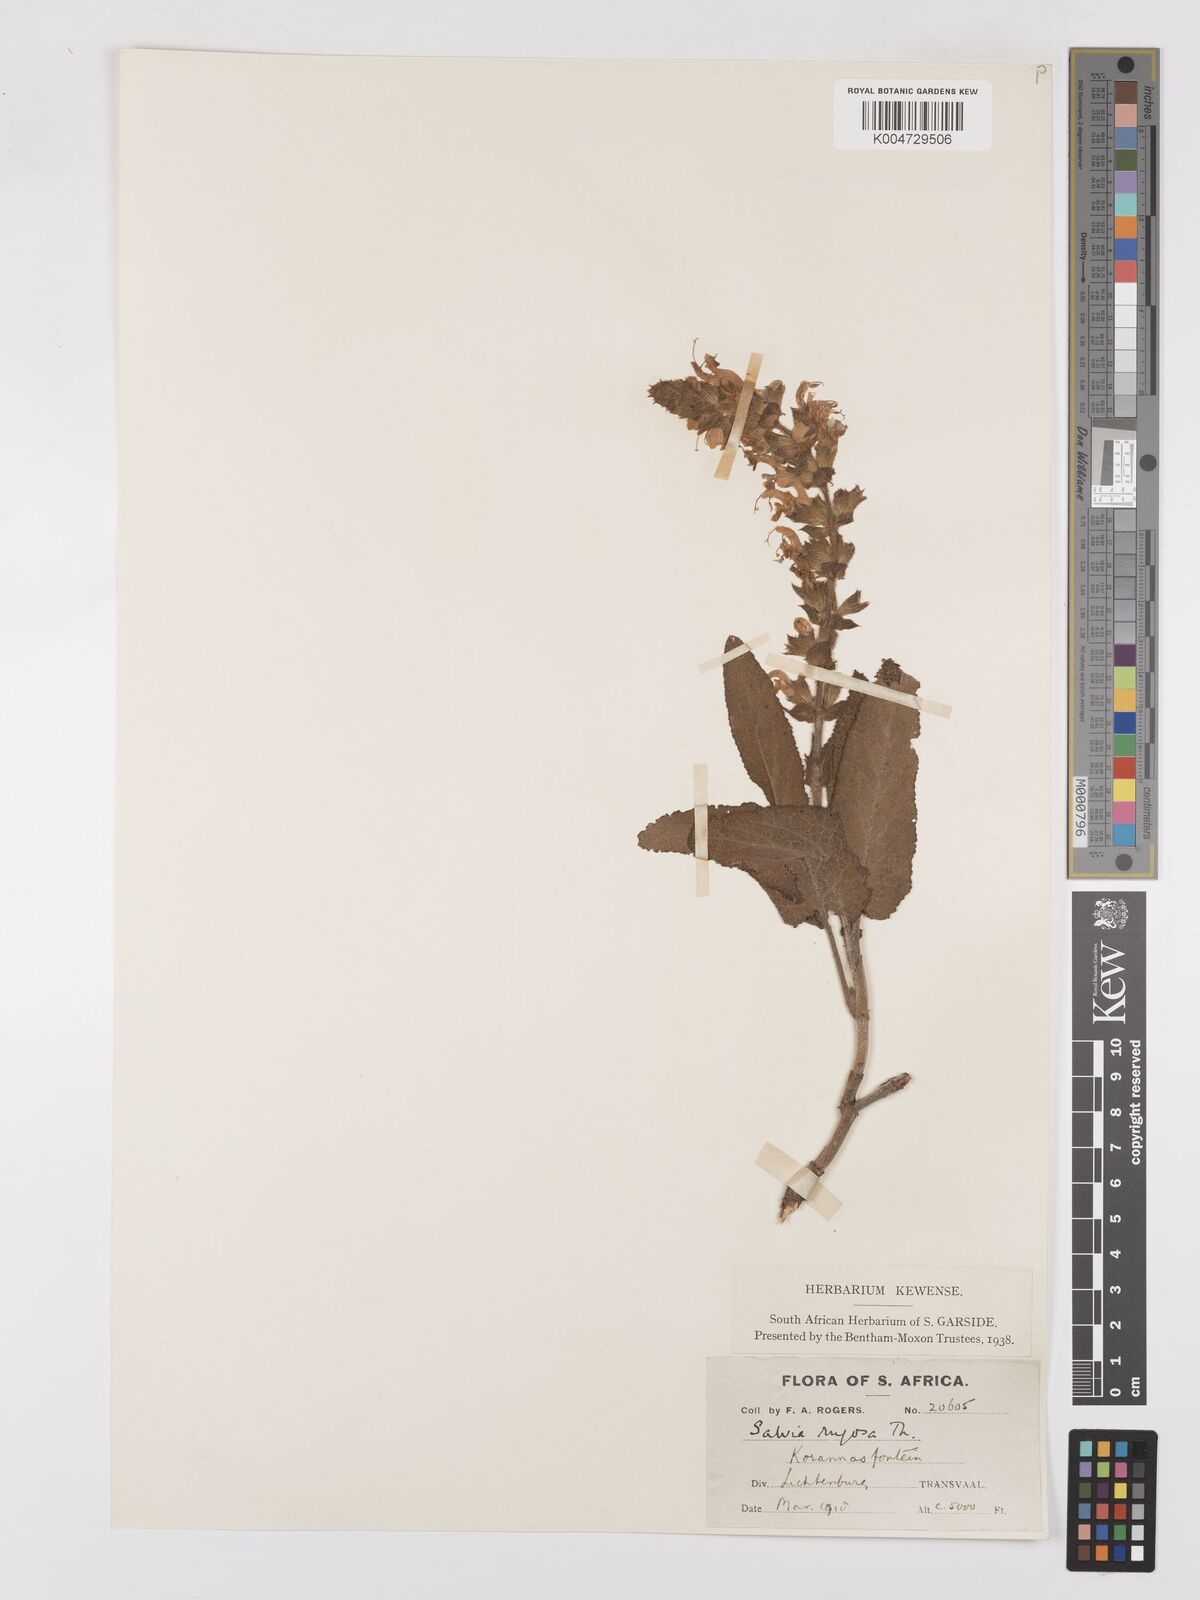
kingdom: Plantae
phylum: Tracheophyta
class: Magnoliopsida
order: Lamiales
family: Lamiaceae
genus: Salvia
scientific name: Salvia
